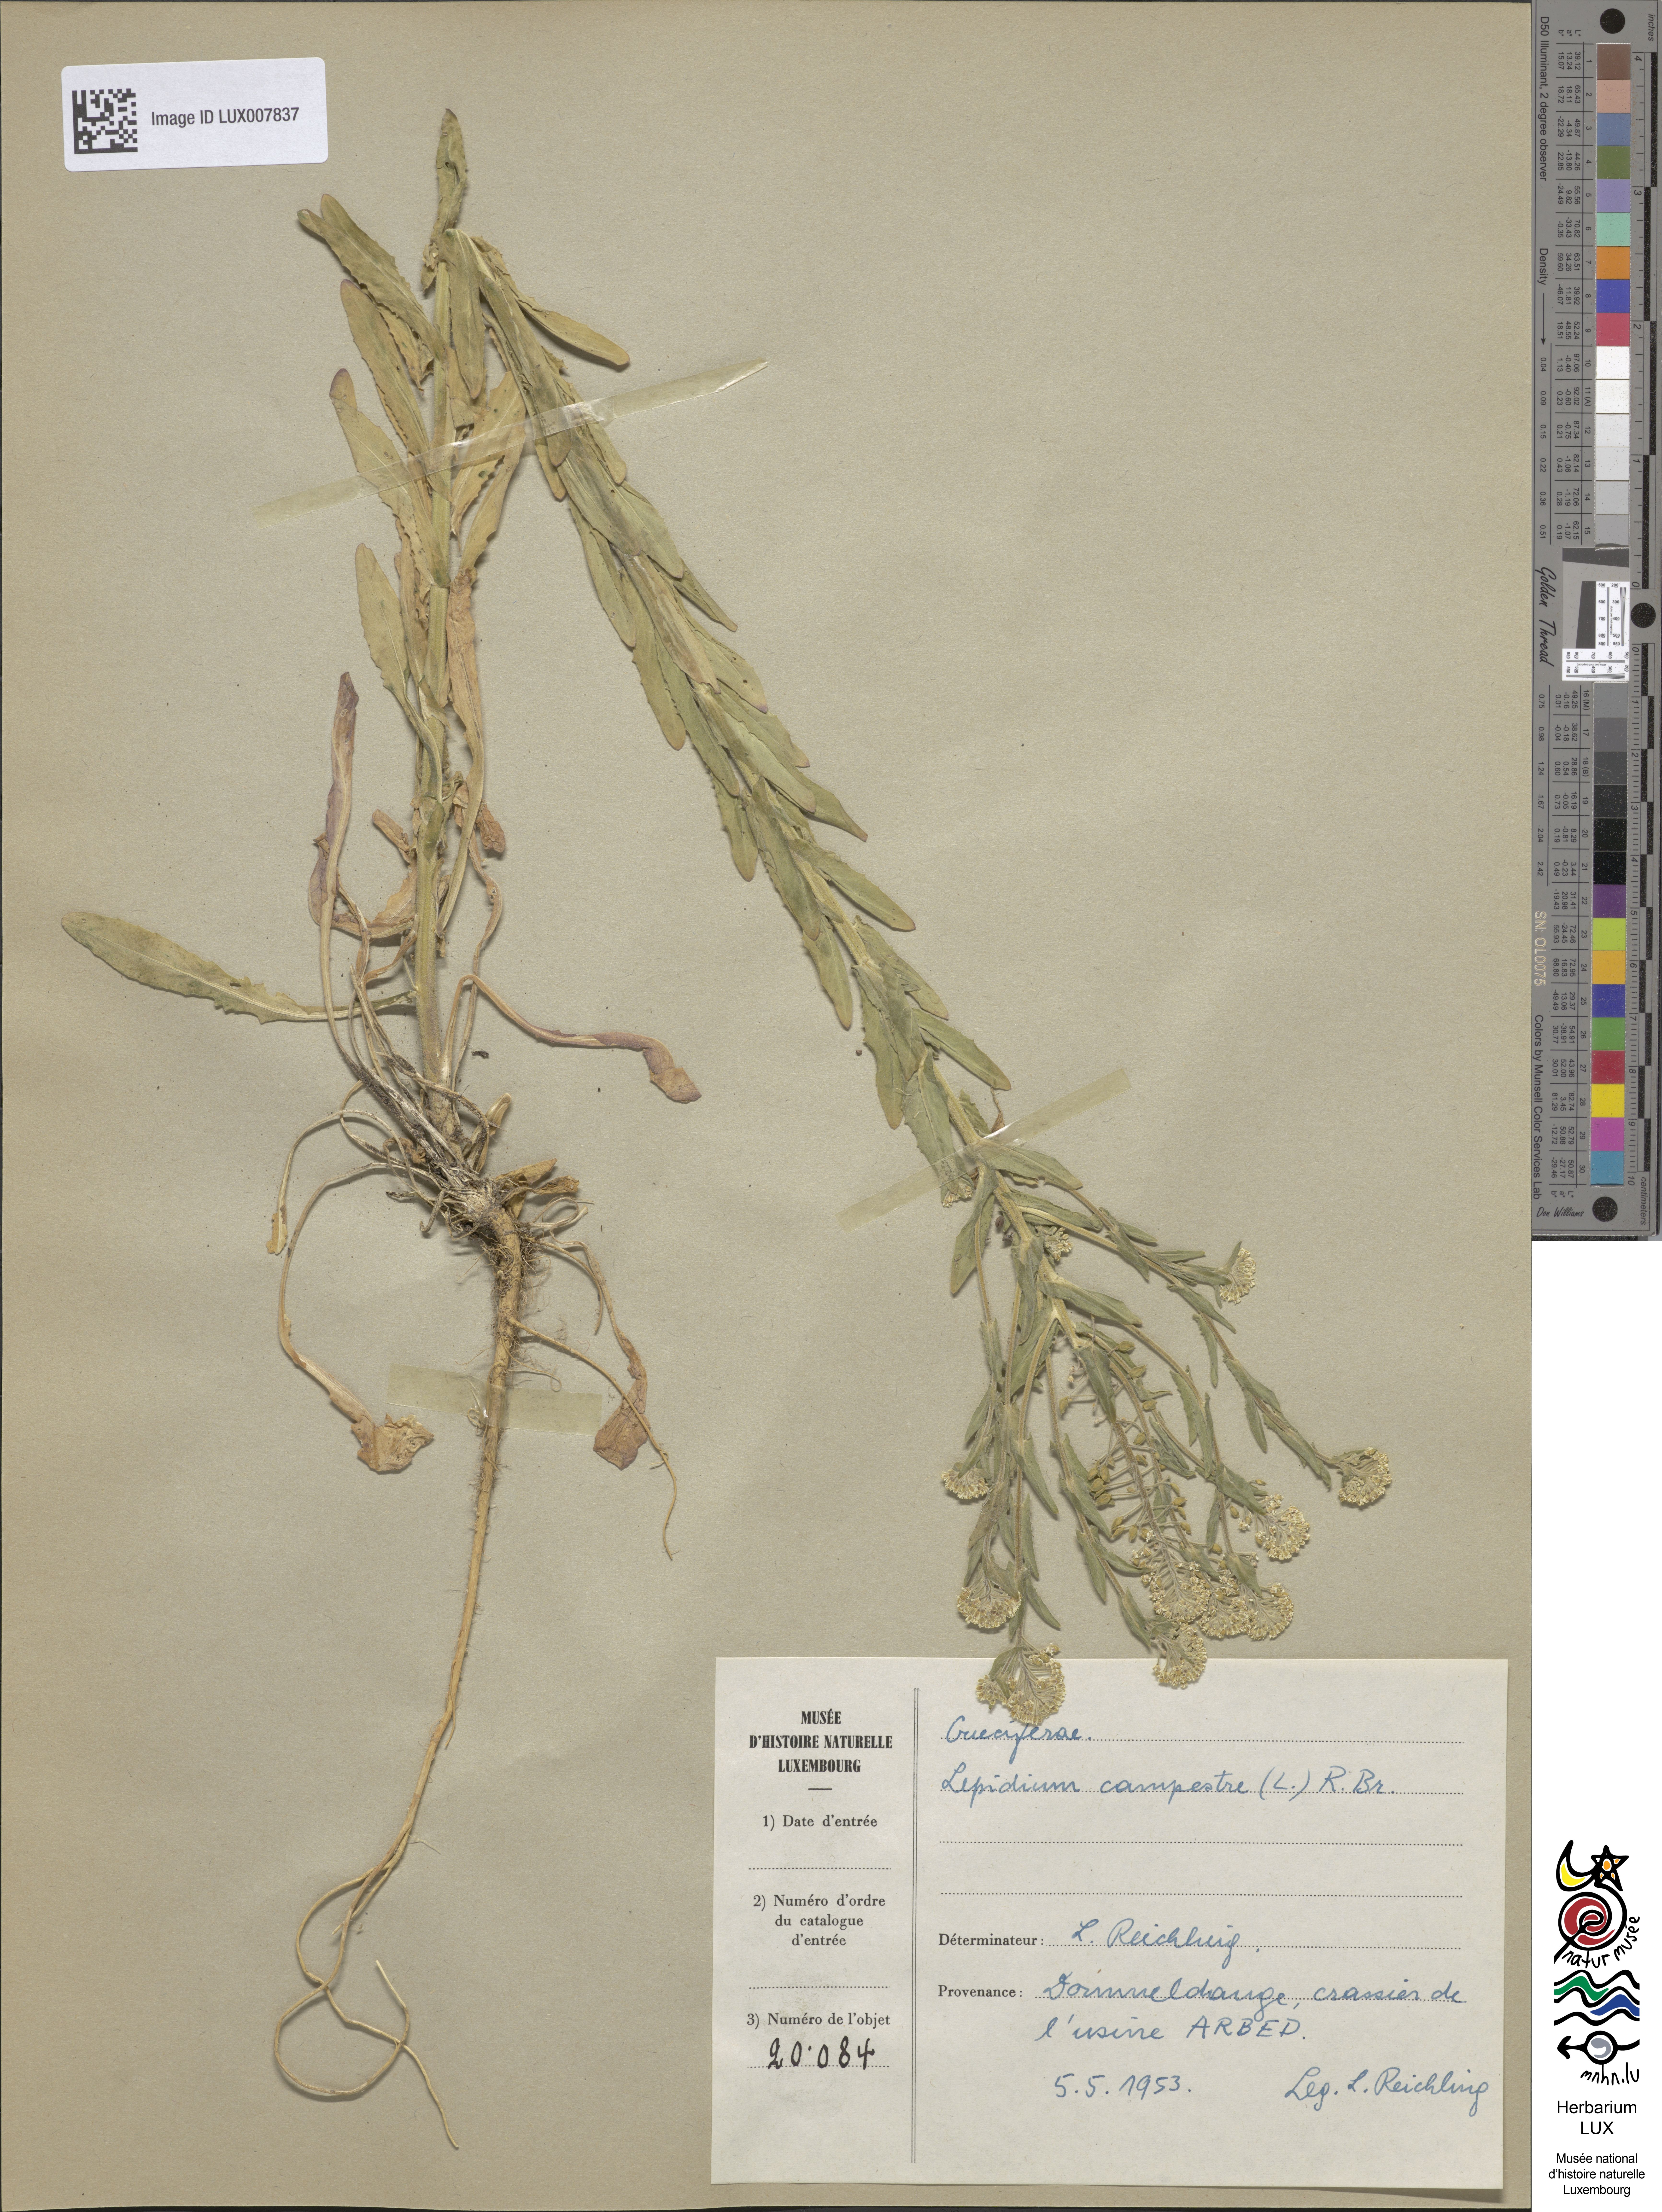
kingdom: Plantae
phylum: Tracheophyta
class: Magnoliopsida
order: Brassicales
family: Brassicaceae
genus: Lepidium
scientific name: Lepidium campestre
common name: Field pepperwort
